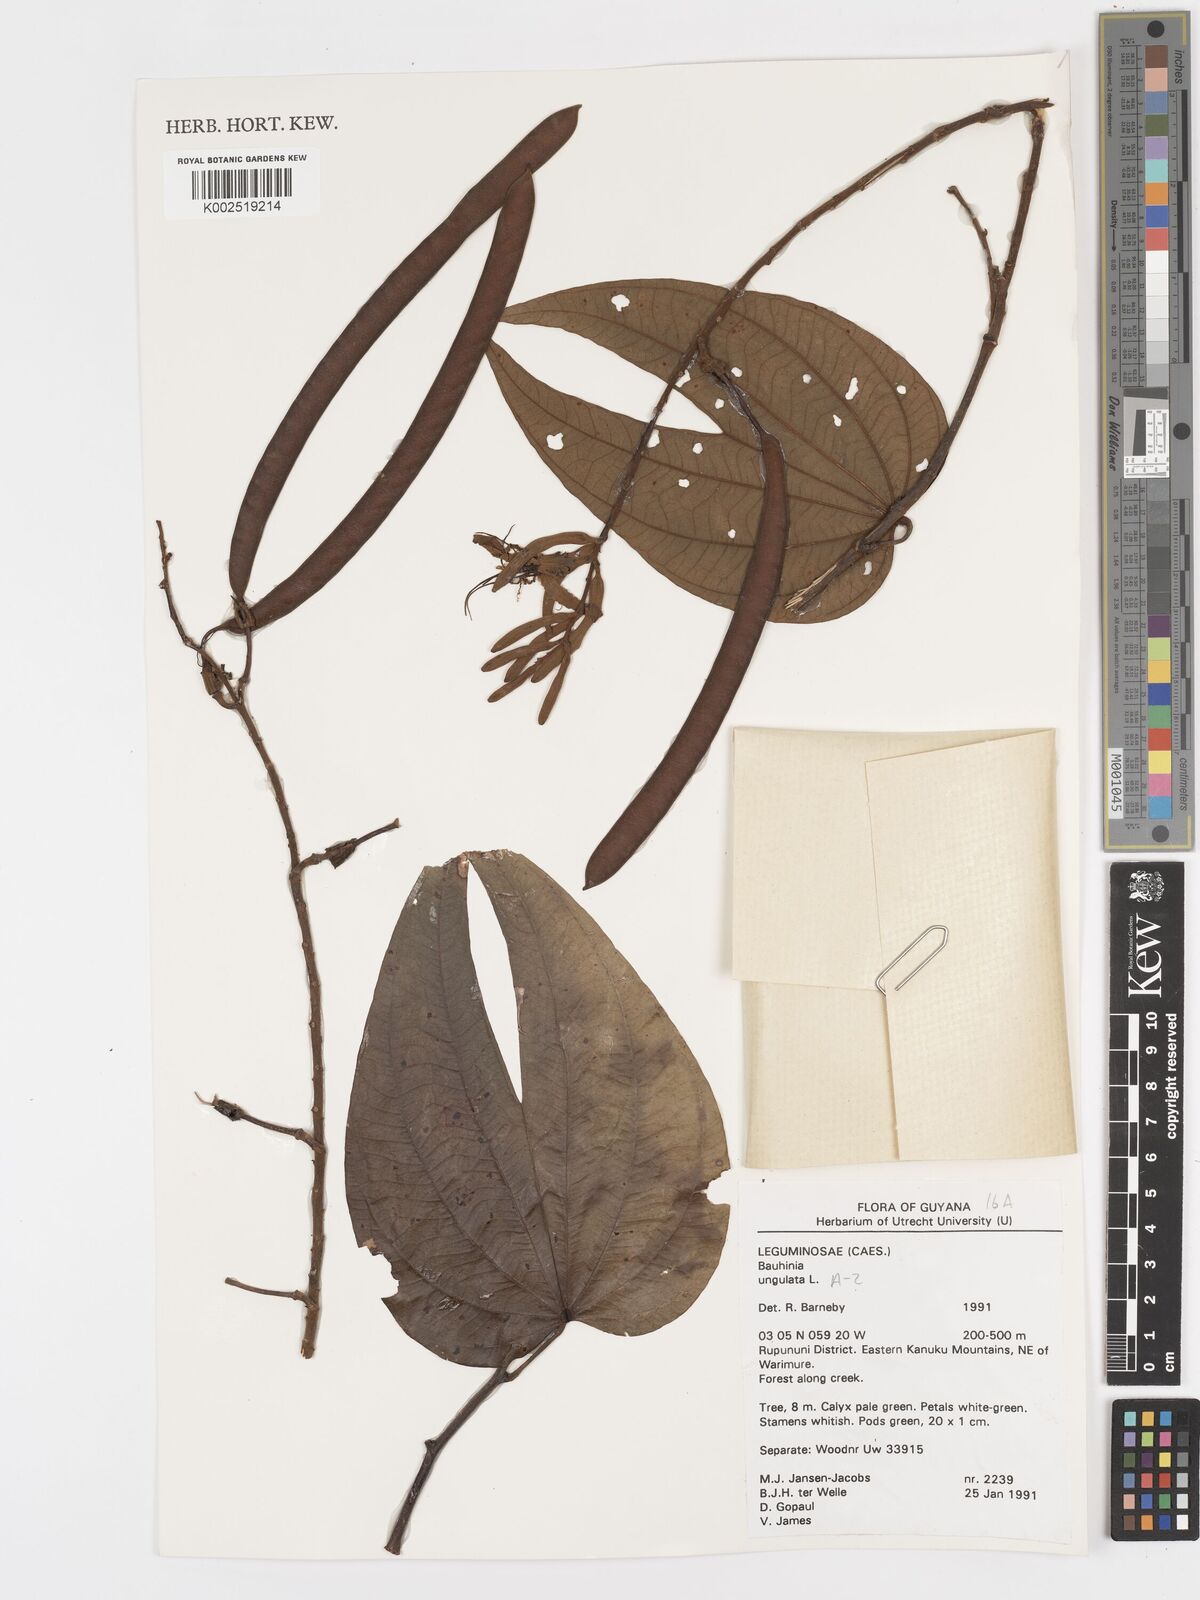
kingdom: Plantae
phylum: Tracheophyta
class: Magnoliopsida
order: Fabales
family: Fabaceae
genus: Bauhinia
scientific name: Bauhinia ungulata
